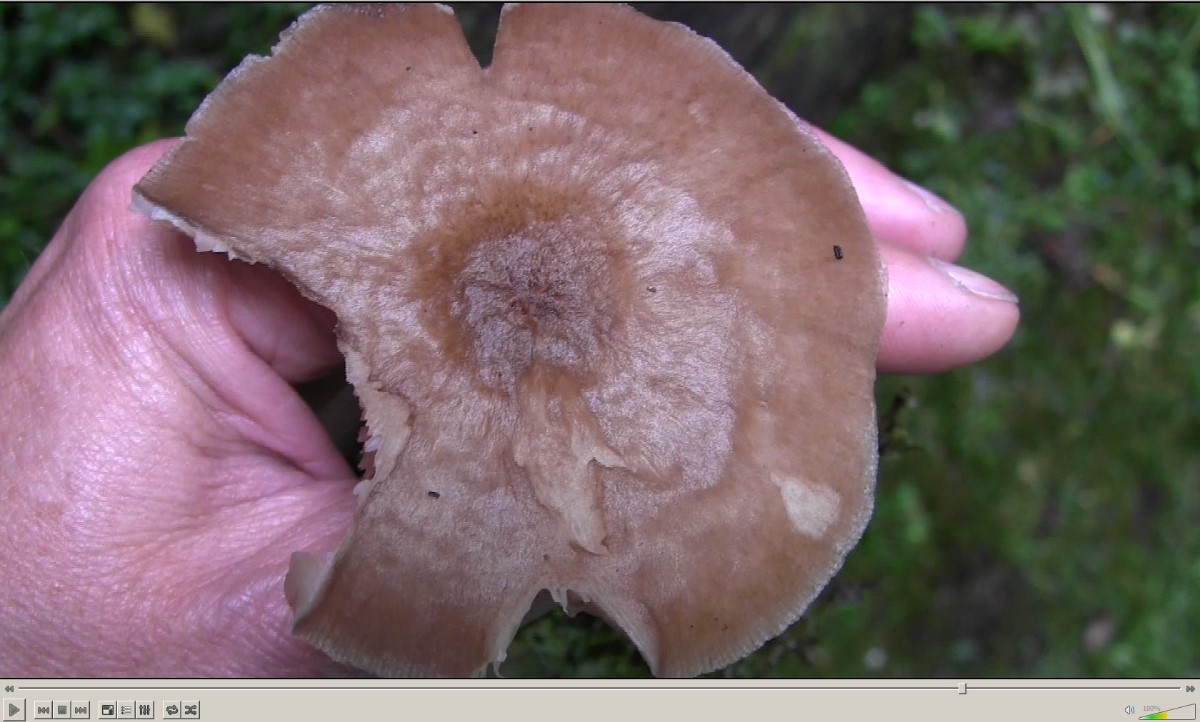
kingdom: Fungi
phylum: Basidiomycota
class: Agaricomycetes
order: Agaricales
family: Pluteaceae
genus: Pluteus
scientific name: Pluteus cervinus
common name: sodfarvet skærmhat
